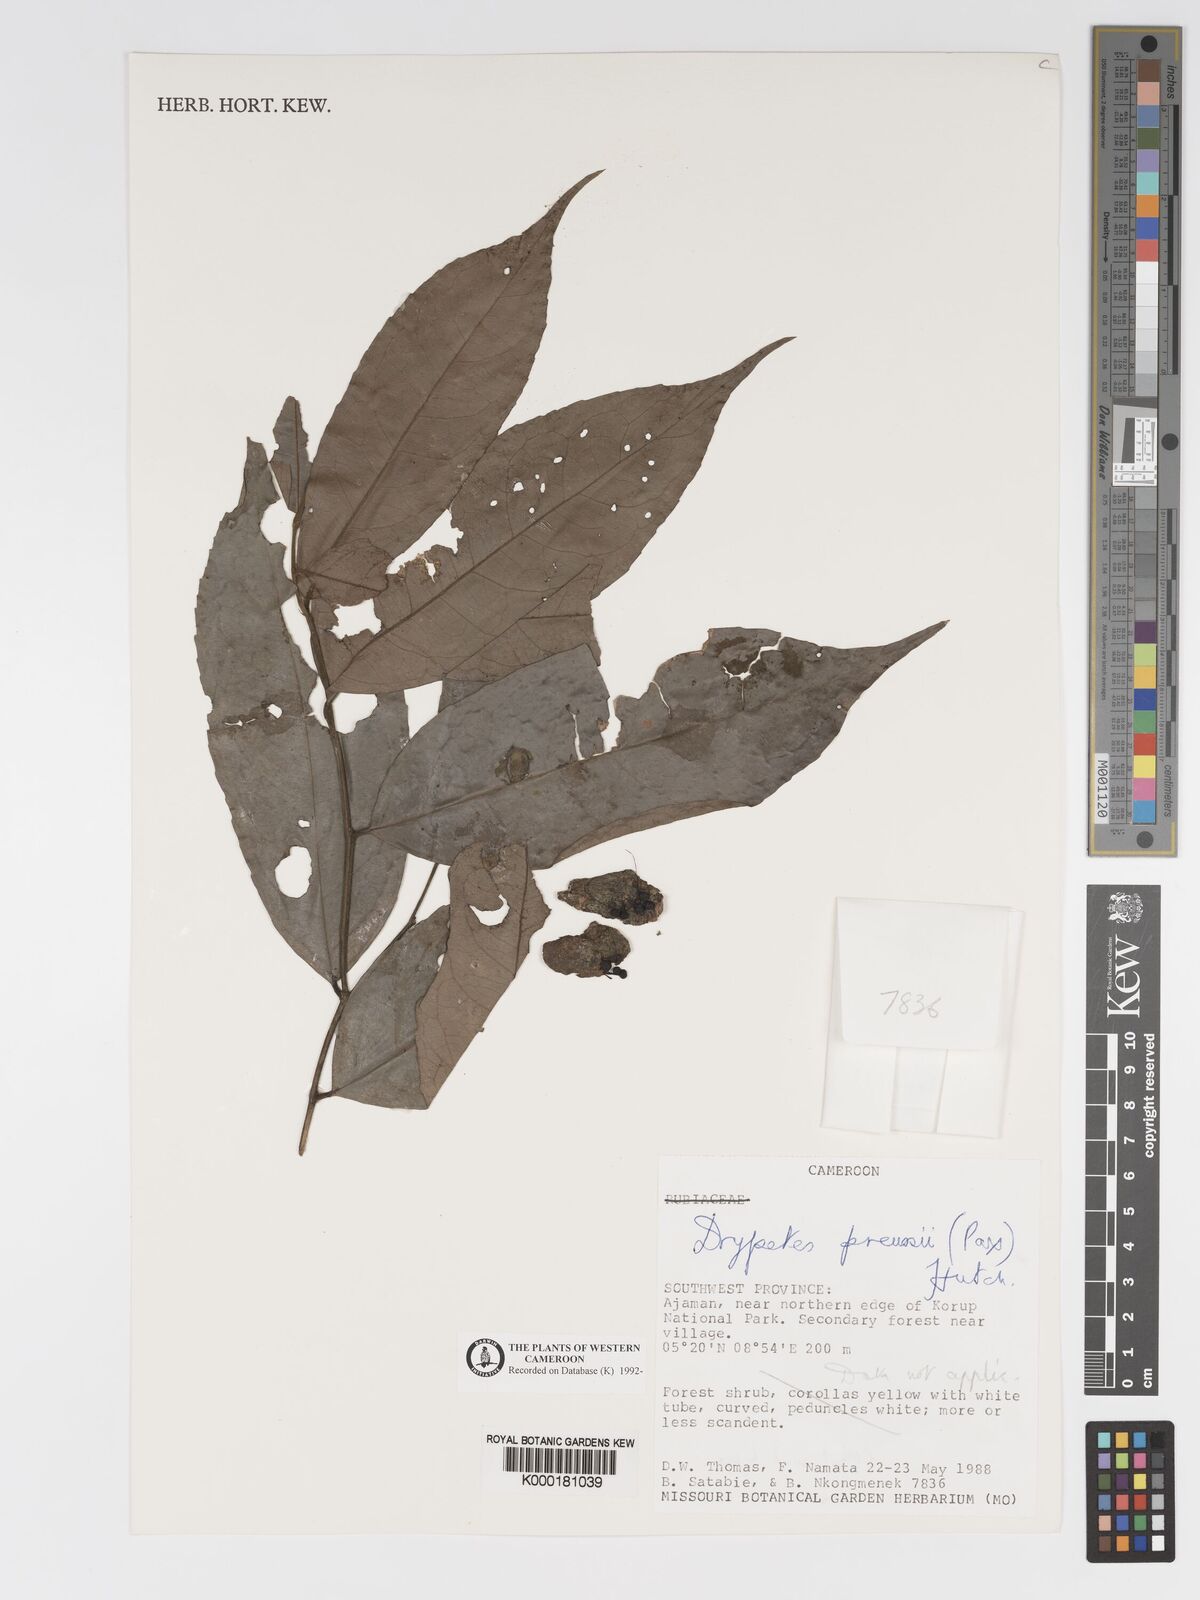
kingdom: Plantae
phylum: Tracheophyta
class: Magnoliopsida
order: Malpighiales
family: Putranjivaceae
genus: Drypetes
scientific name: Drypetes preussii
